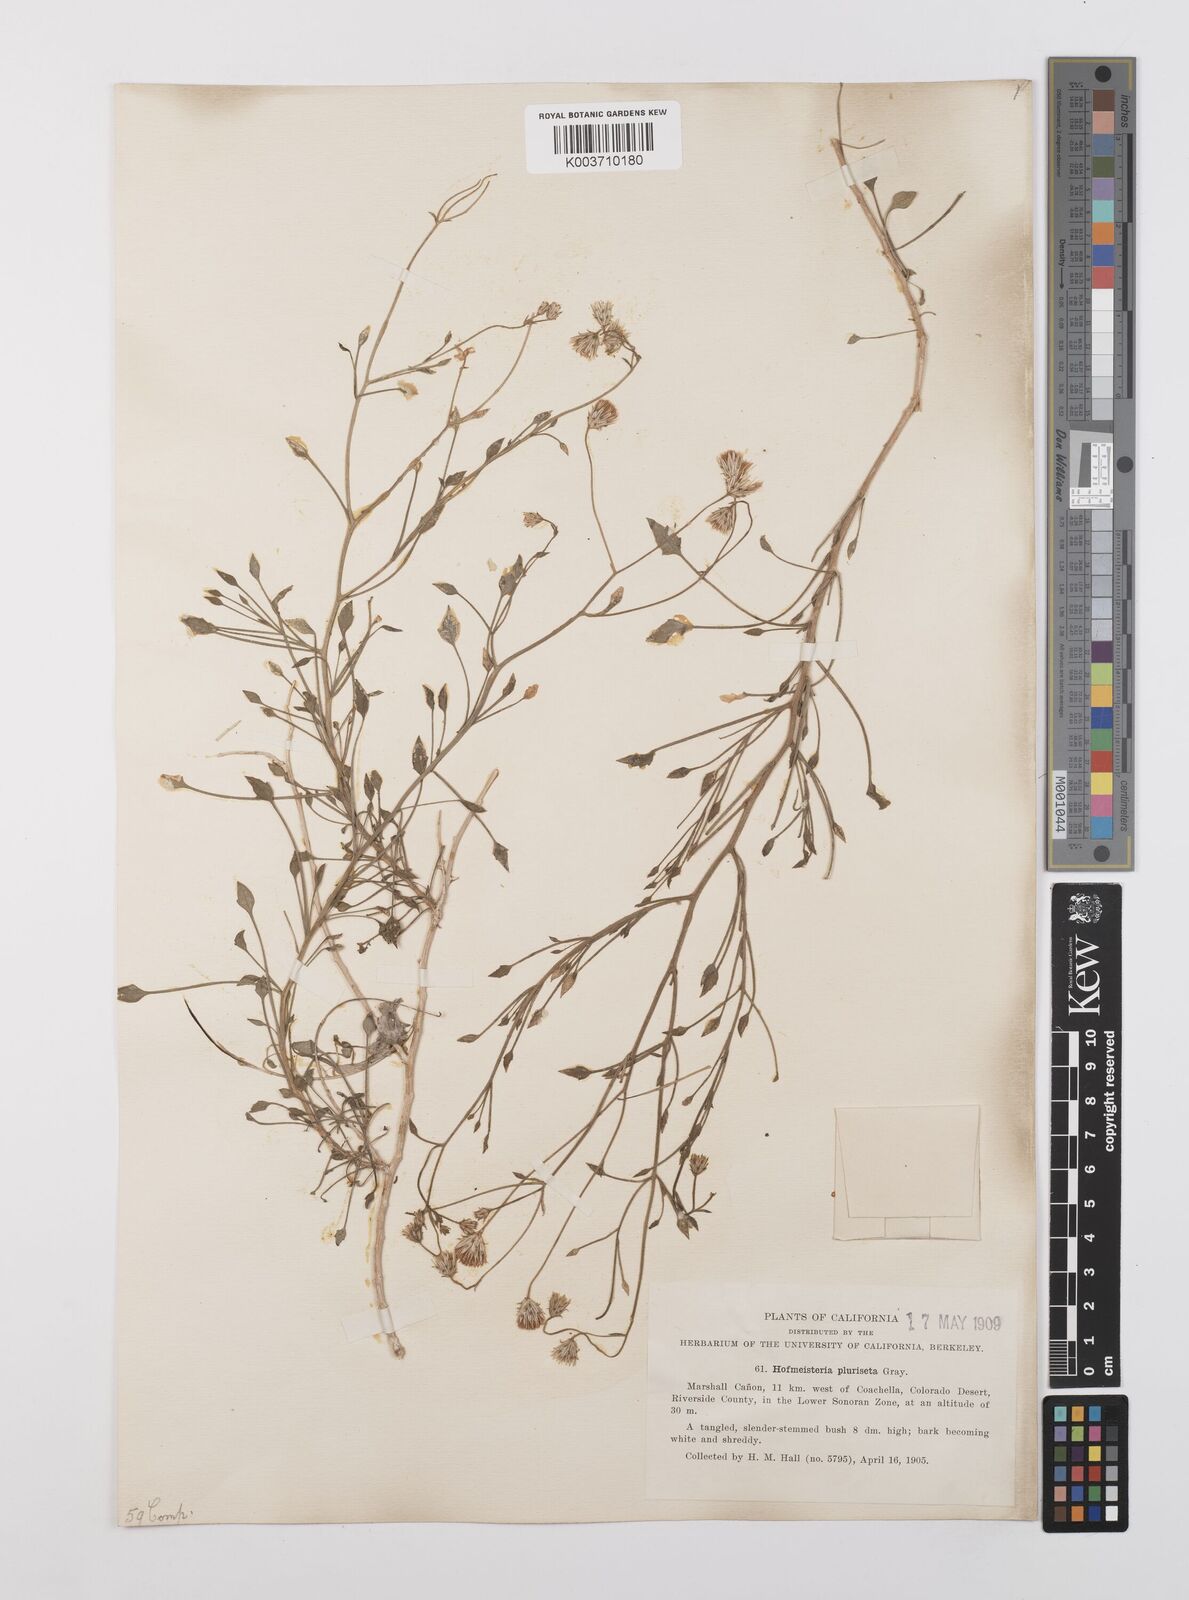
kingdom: Plantae
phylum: Tracheophyta
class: Magnoliopsida
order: Asterales
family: Asteraceae
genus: Pleurocoronis
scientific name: Pleurocoronis pluriseta
